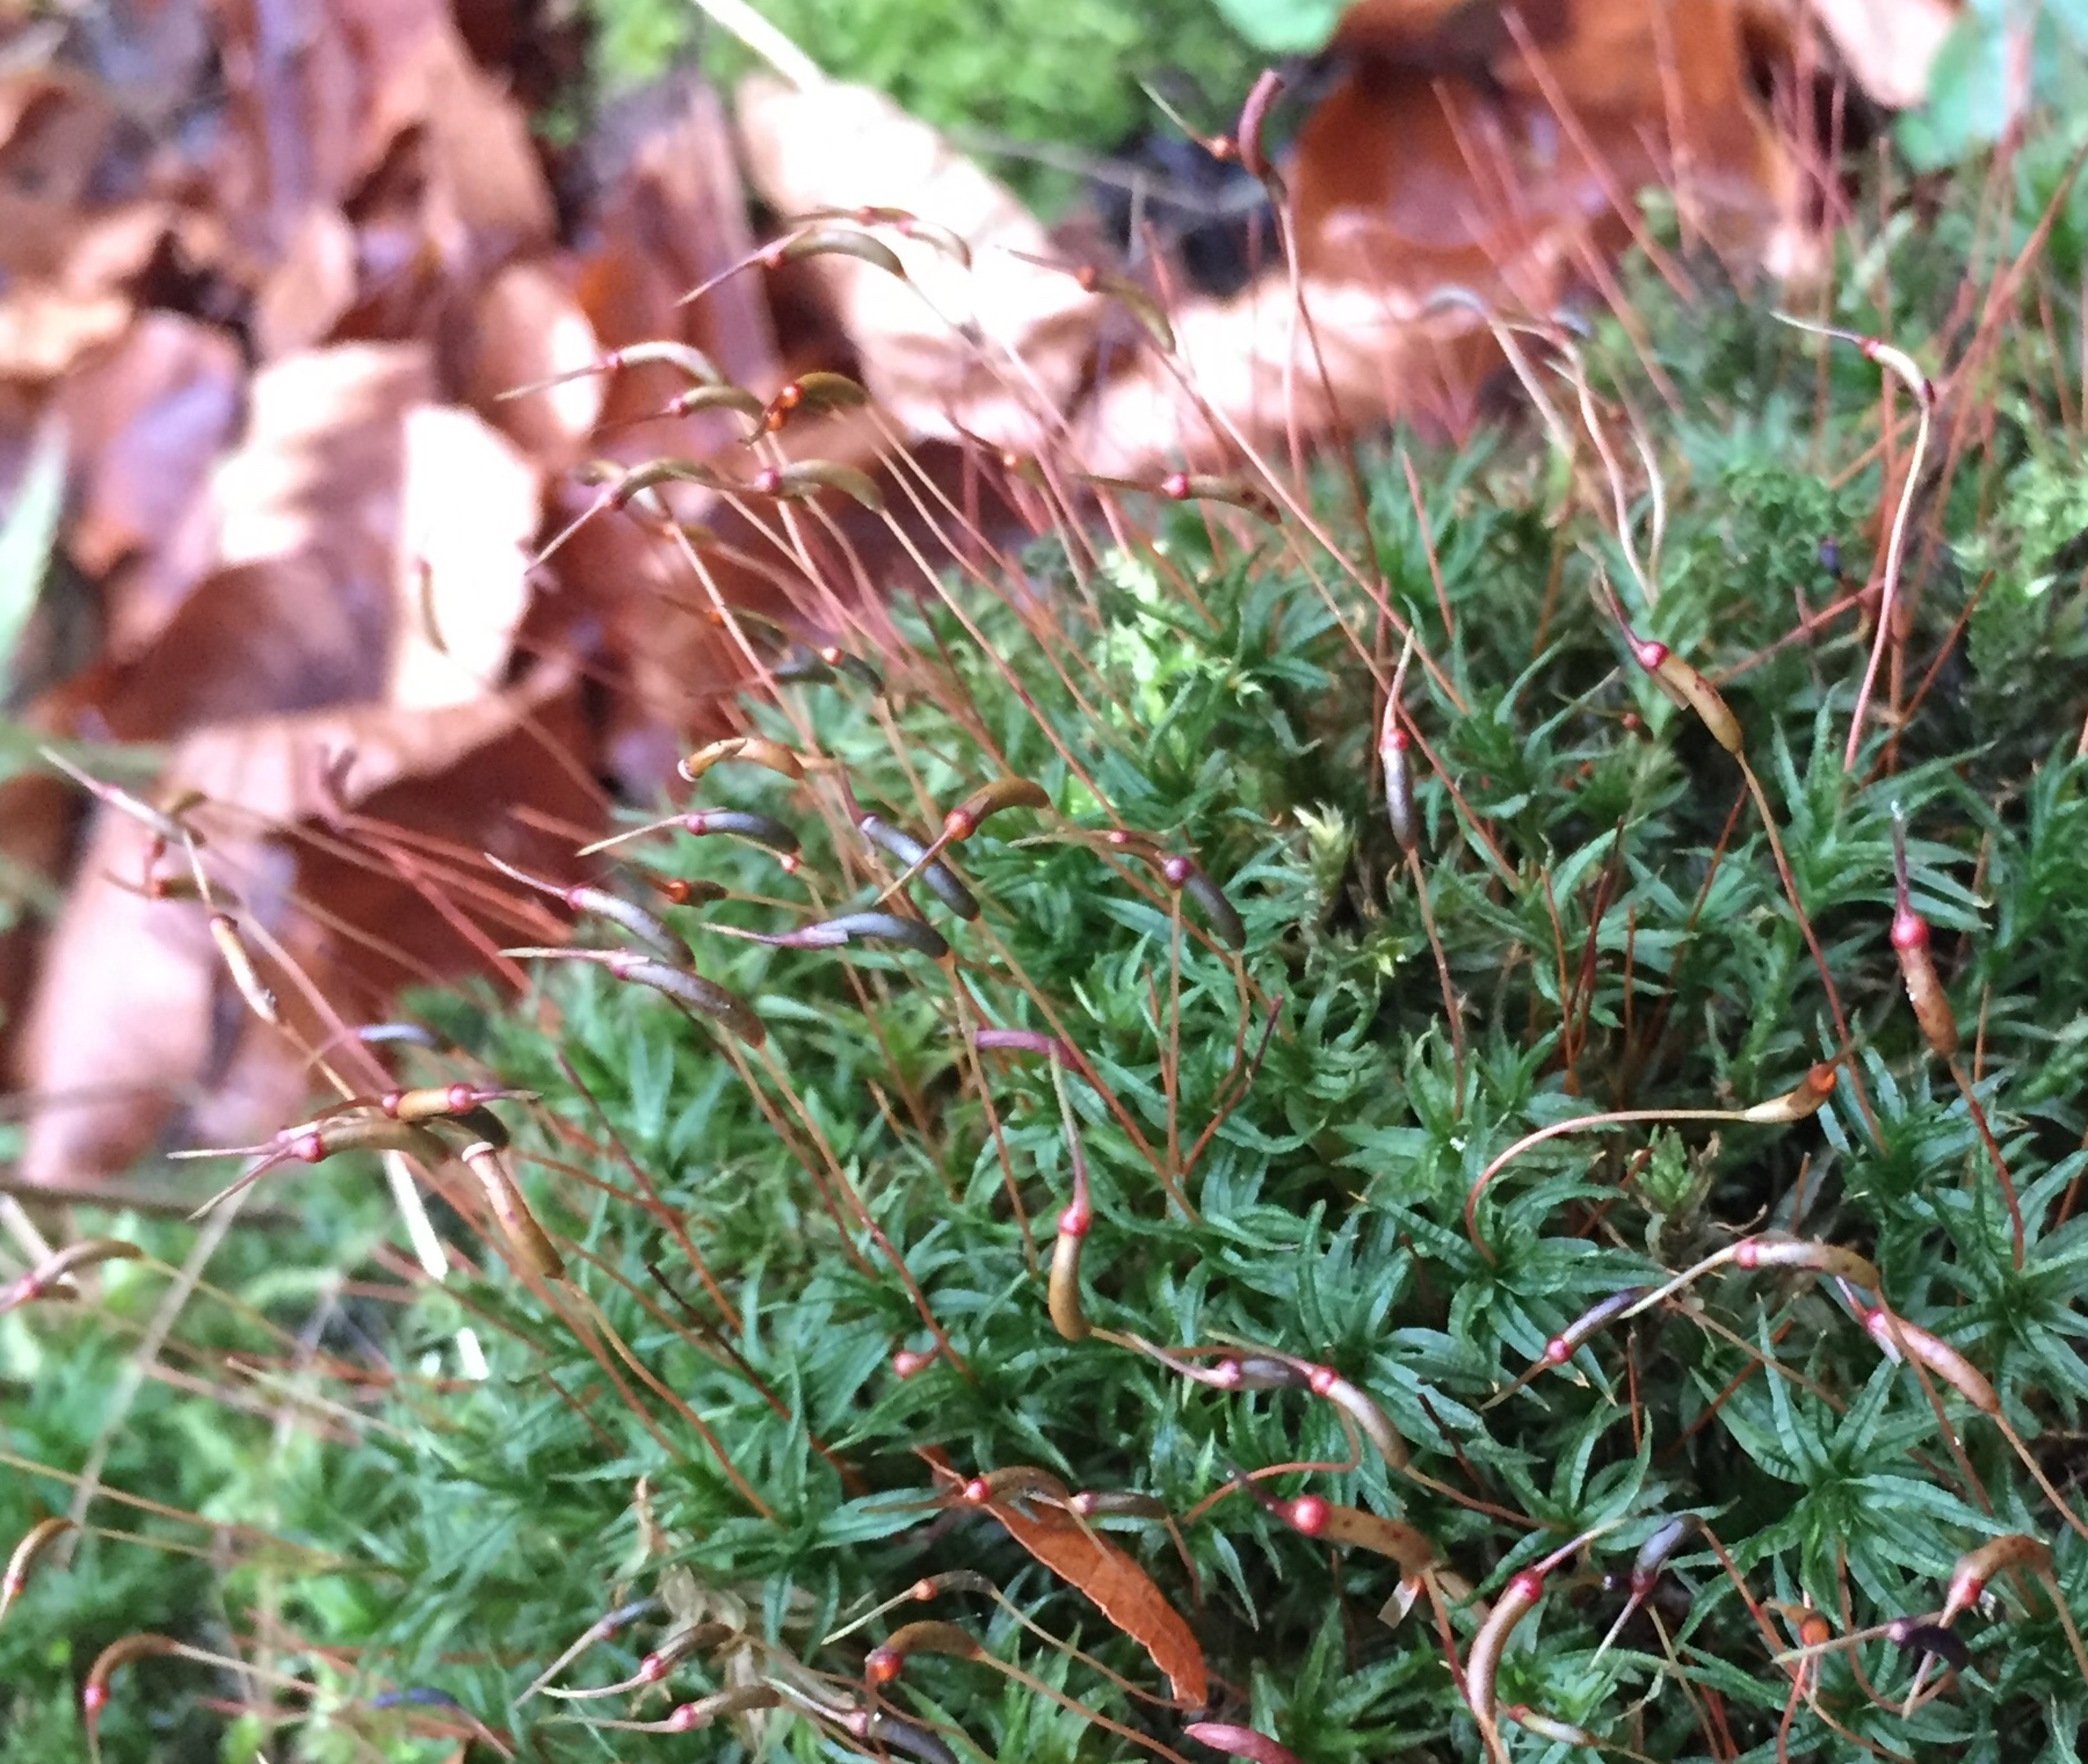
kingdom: Plantae
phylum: Bryophyta
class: Polytrichopsida
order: Polytrichales
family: Polytrichaceae
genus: Atrichum
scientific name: Atrichum undulatum
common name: Bølget katrinemos
